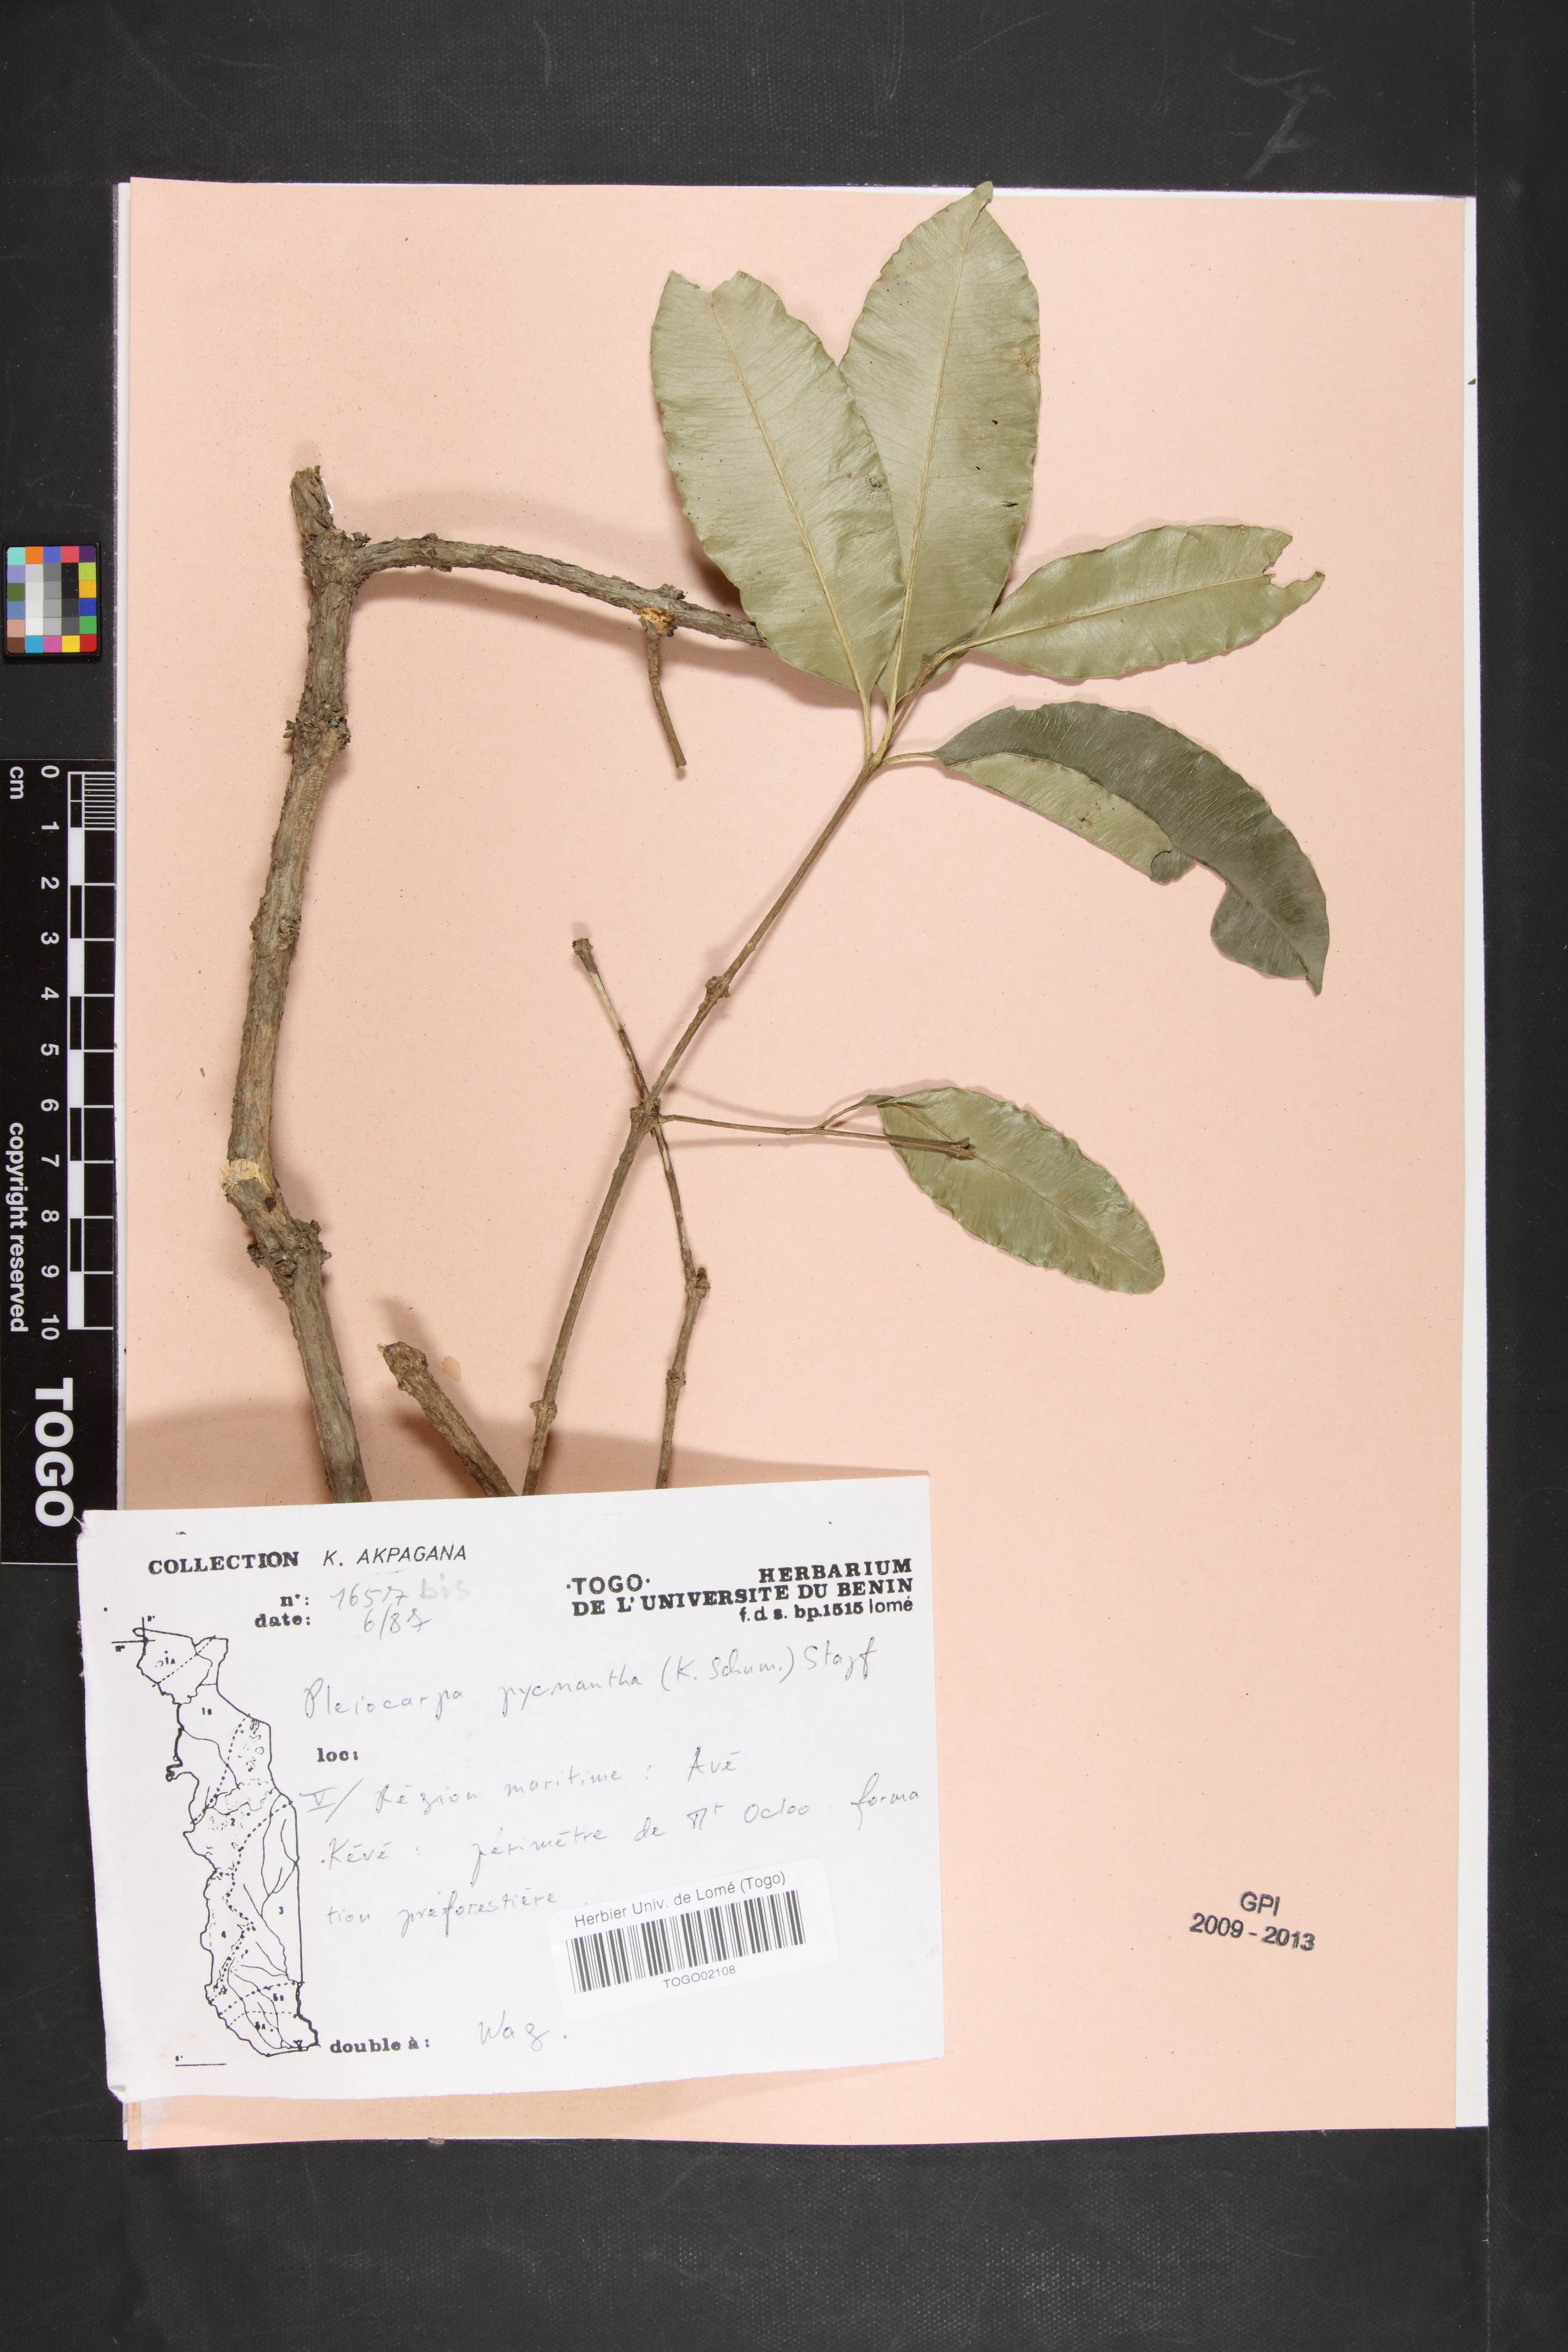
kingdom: Plantae
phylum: Tracheophyta
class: Magnoliopsida
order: Gentianales
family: Apocynaceae
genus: Pleiocarpa
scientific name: Pleiocarpa pycnantha
